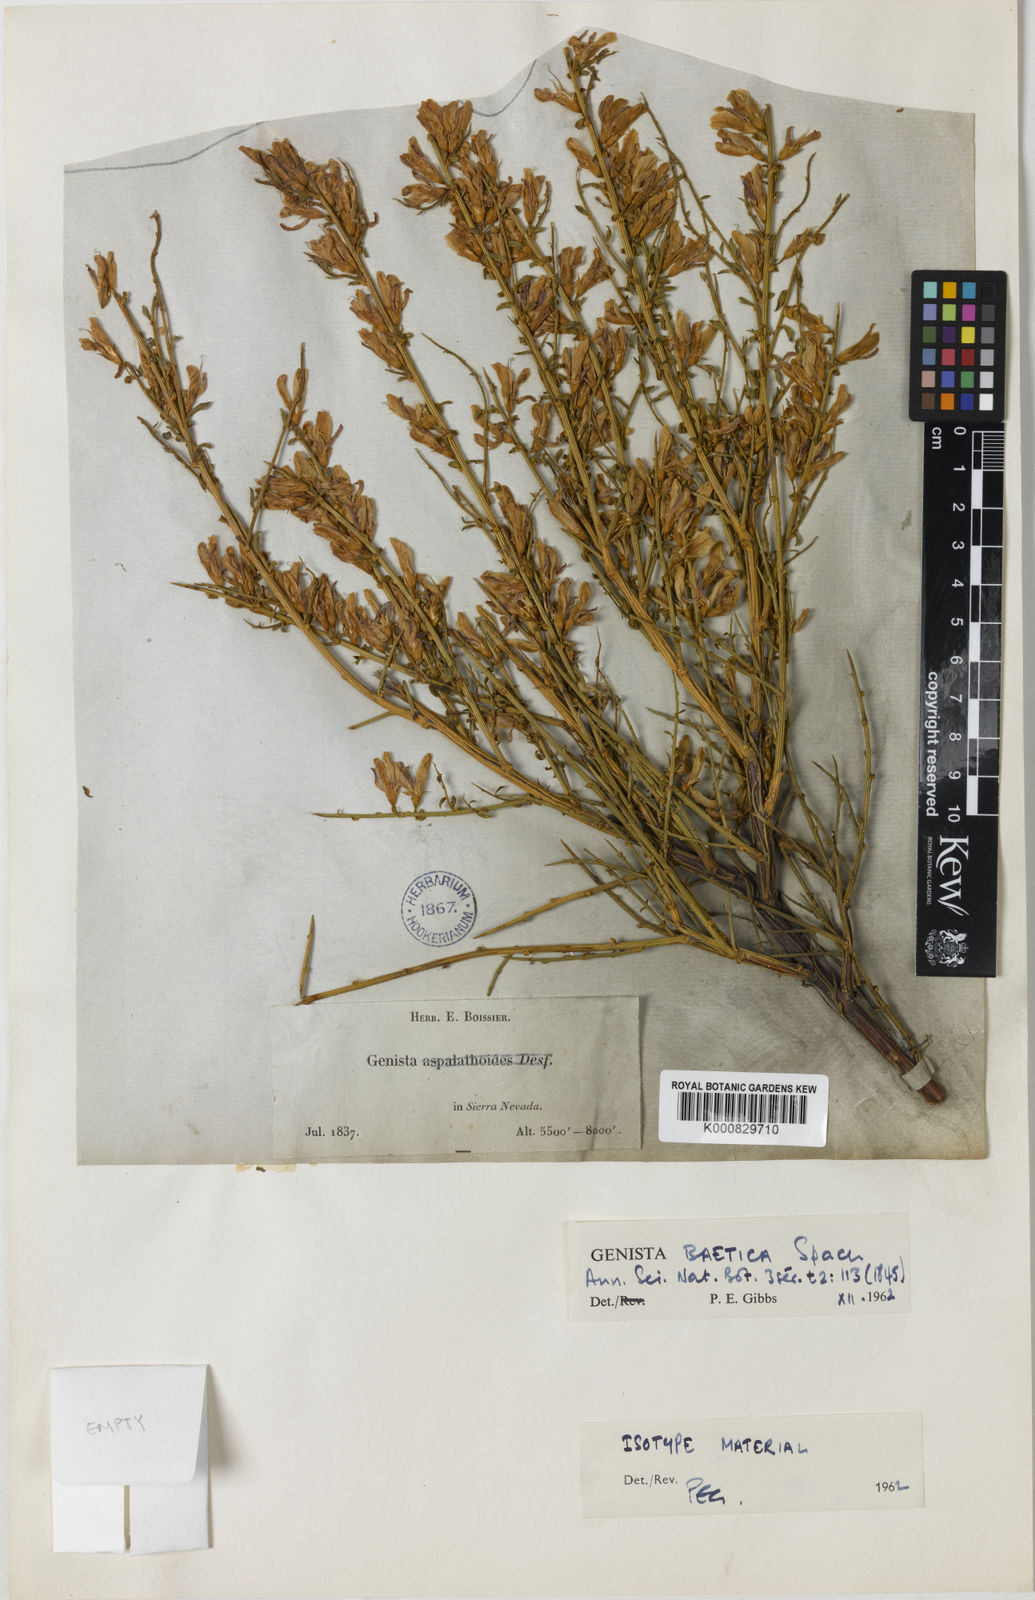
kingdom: Plantae
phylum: Tracheophyta
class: Magnoliopsida
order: Fabales
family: Fabaceae
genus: Genista
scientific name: Genista versicolor
